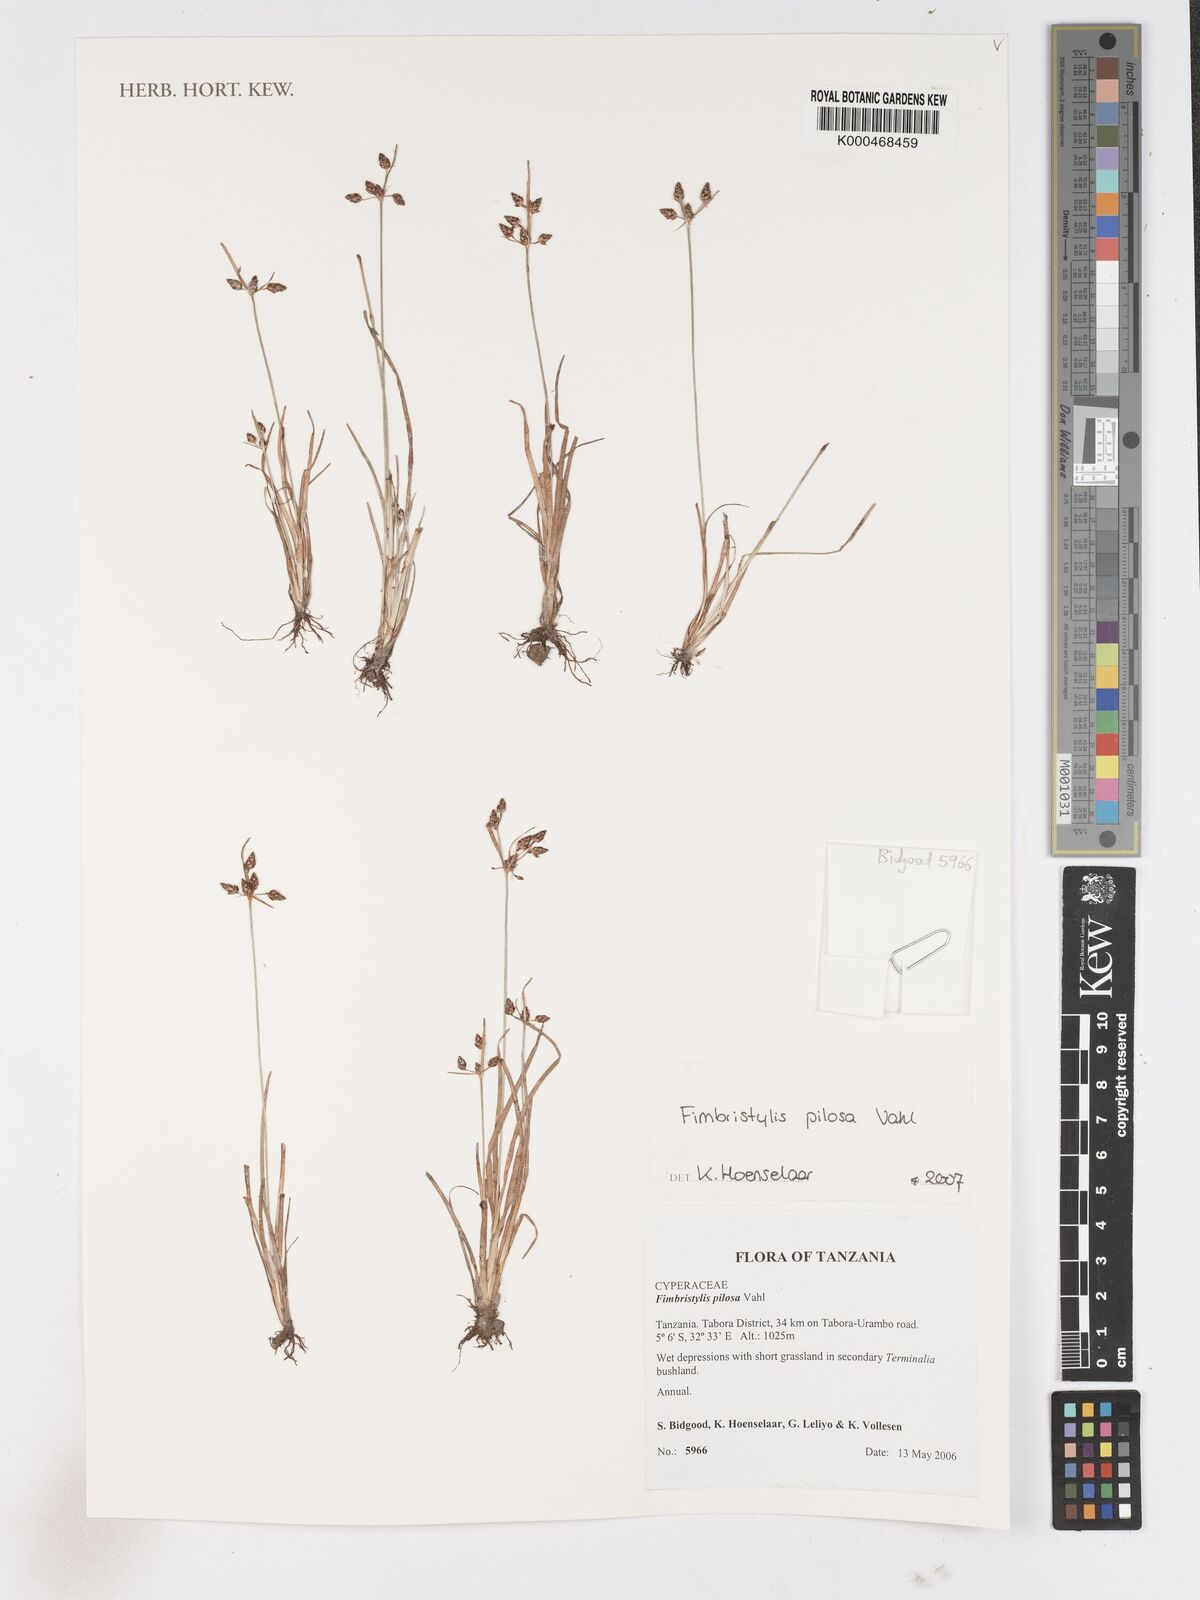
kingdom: Plantae
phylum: Tracheophyta
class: Liliopsida
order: Poales
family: Cyperaceae
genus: Fimbristylis
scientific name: Fimbristylis pilosa
